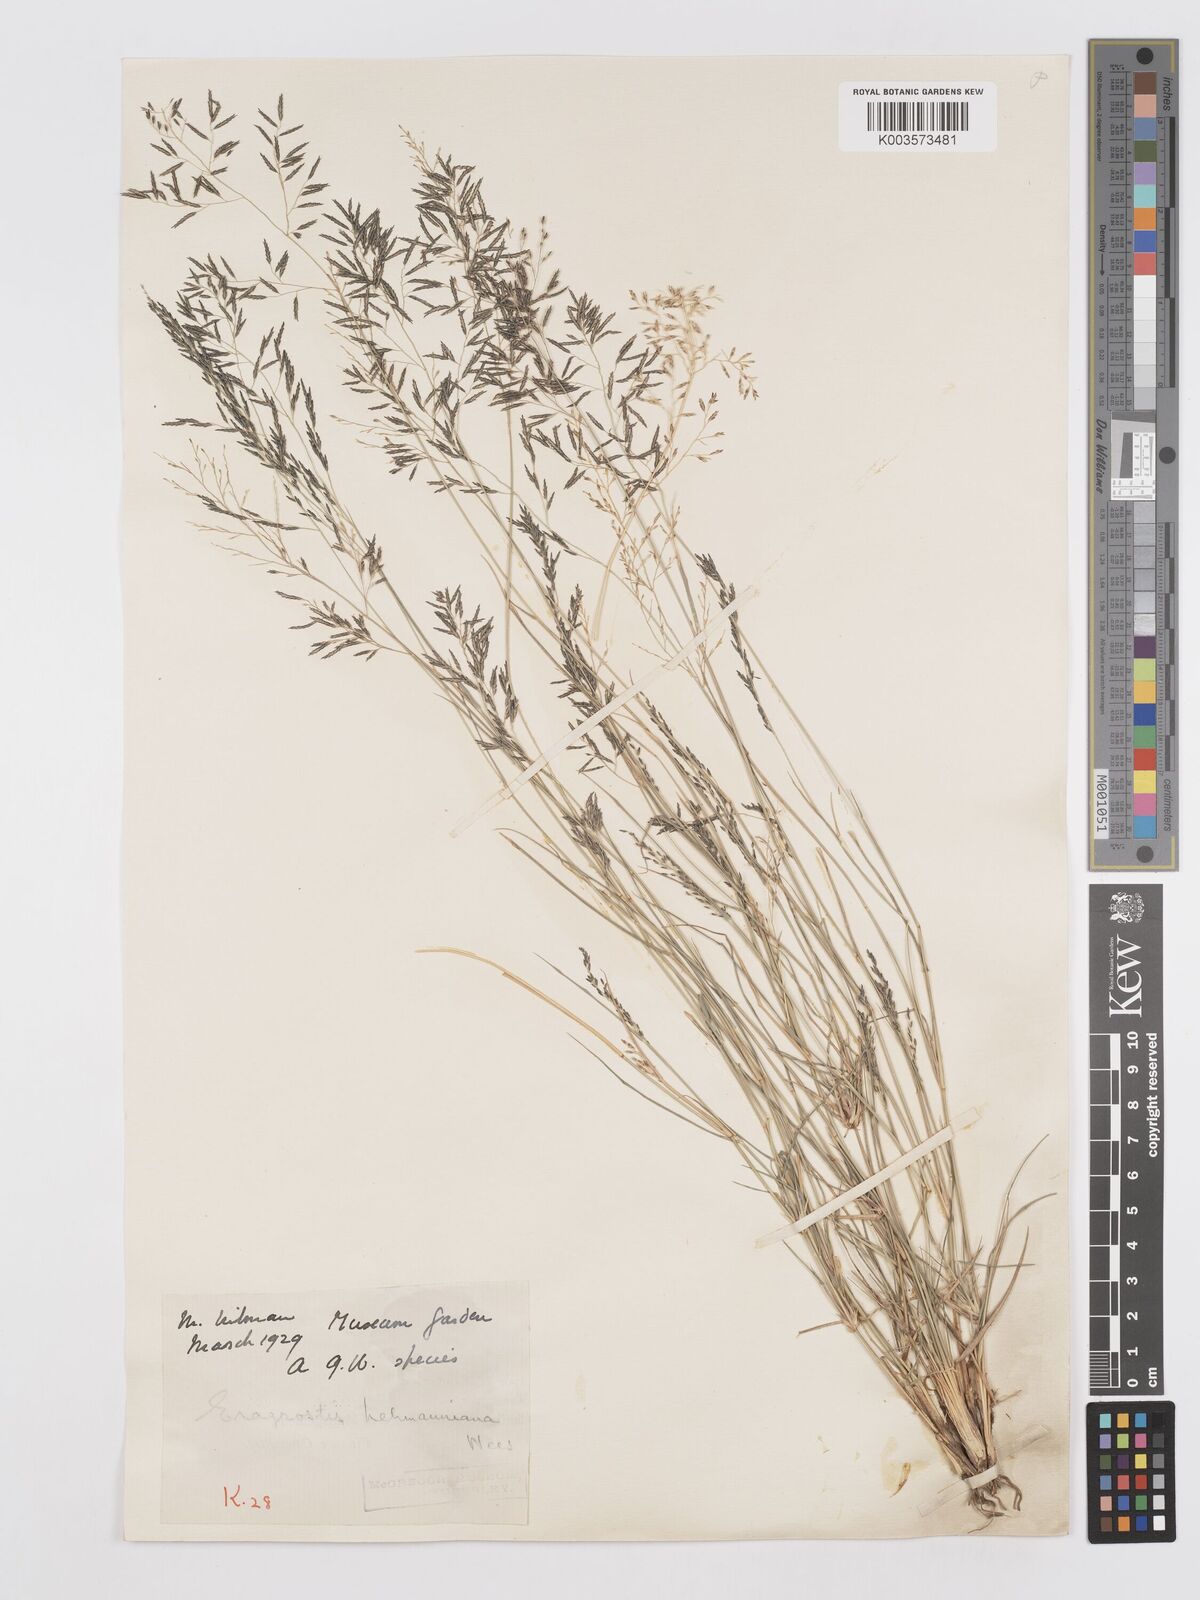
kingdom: Plantae
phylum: Tracheophyta
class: Liliopsida
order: Poales
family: Poaceae
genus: Eragrostis
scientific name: Eragrostis lehmanniana
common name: Lehmann lovegrass
